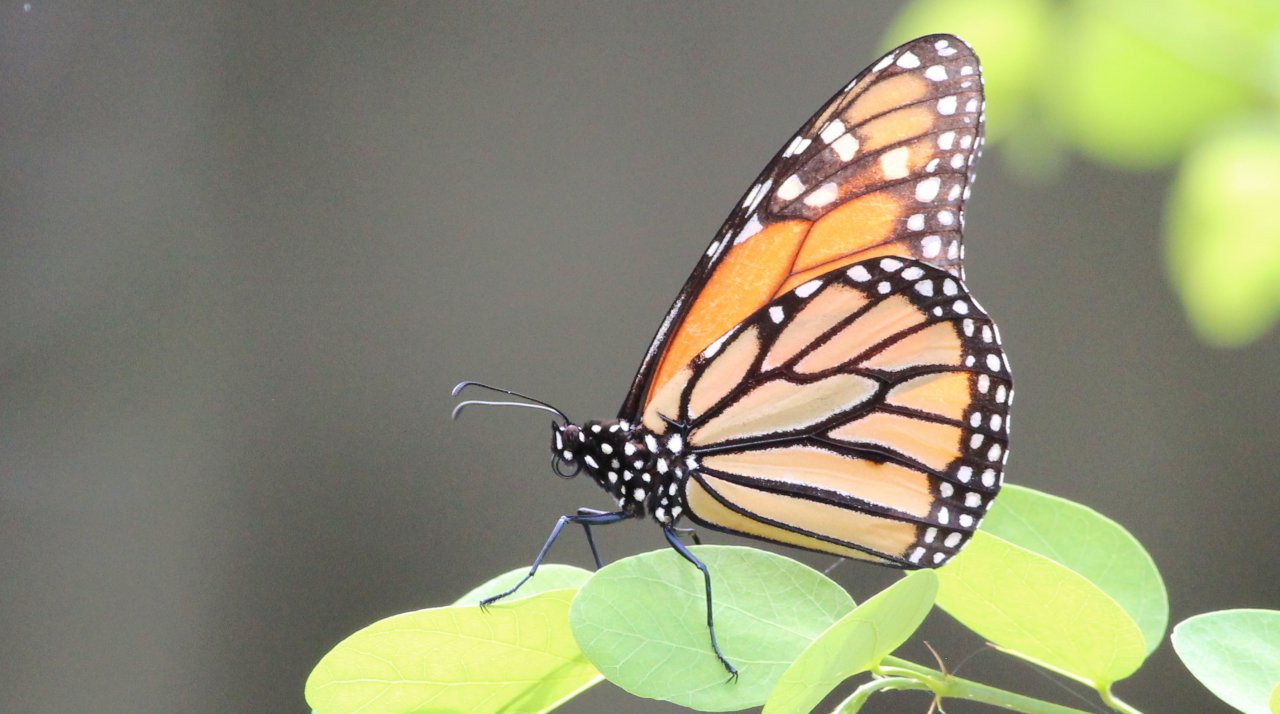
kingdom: Animalia
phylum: Arthropoda
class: Insecta
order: Lepidoptera
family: Nymphalidae
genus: Danaus
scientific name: Danaus plexippus
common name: Monarch
